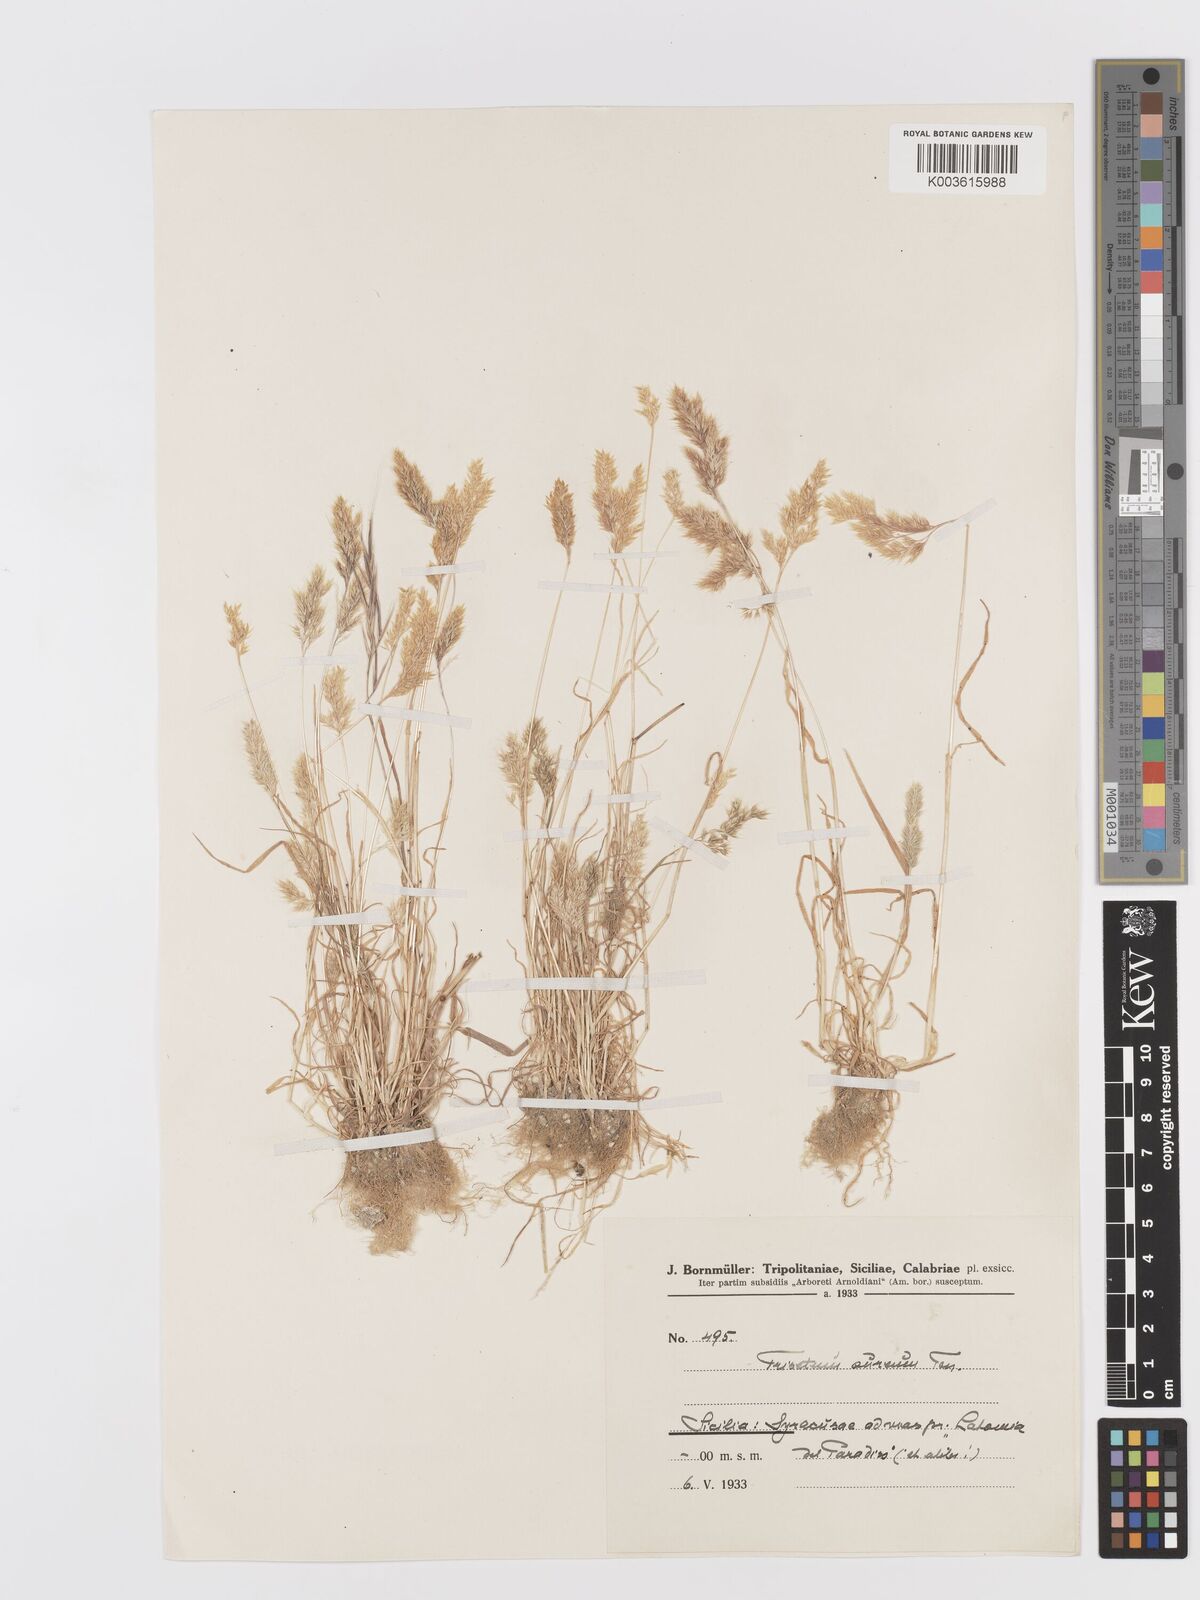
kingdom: Plantae
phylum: Tracheophyta
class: Liliopsida
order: Poales
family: Poaceae
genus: Trisetaria
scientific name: Trisetaria aurea
